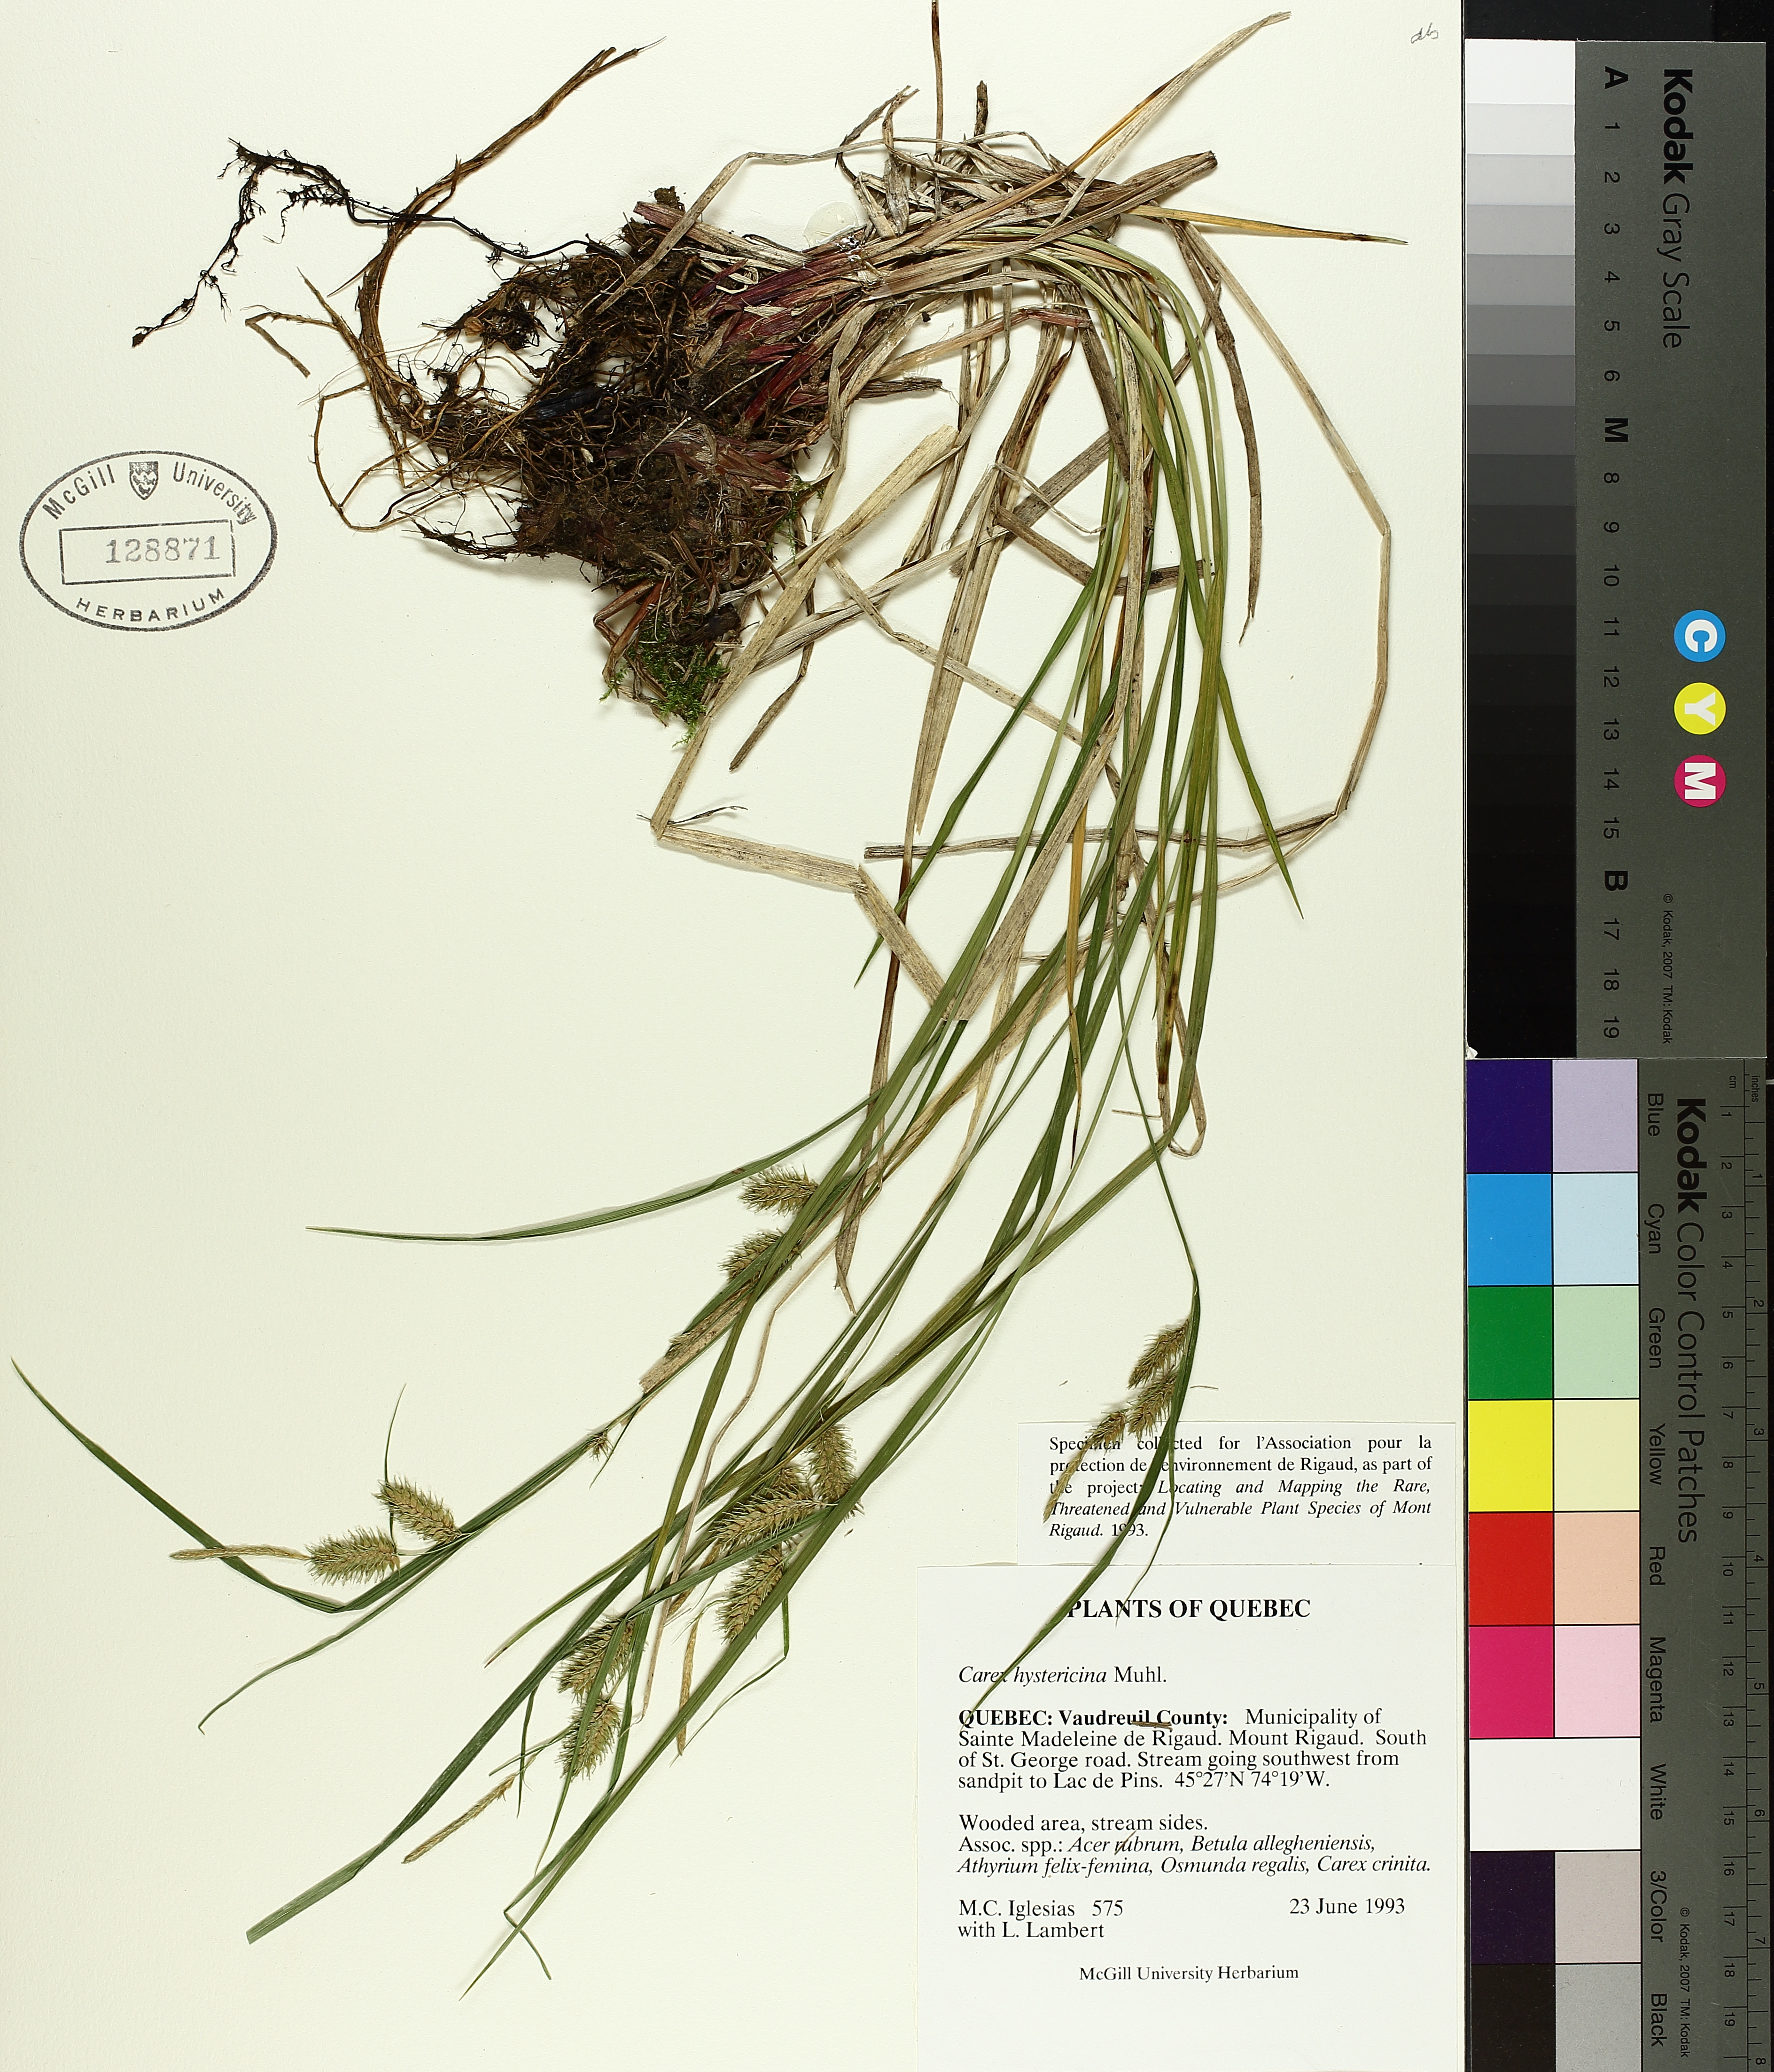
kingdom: Plantae
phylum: Tracheophyta
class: Liliopsida
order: Poales
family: Cyperaceae
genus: Carex
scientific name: Carex hystericina
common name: Bottlebrush sedge
